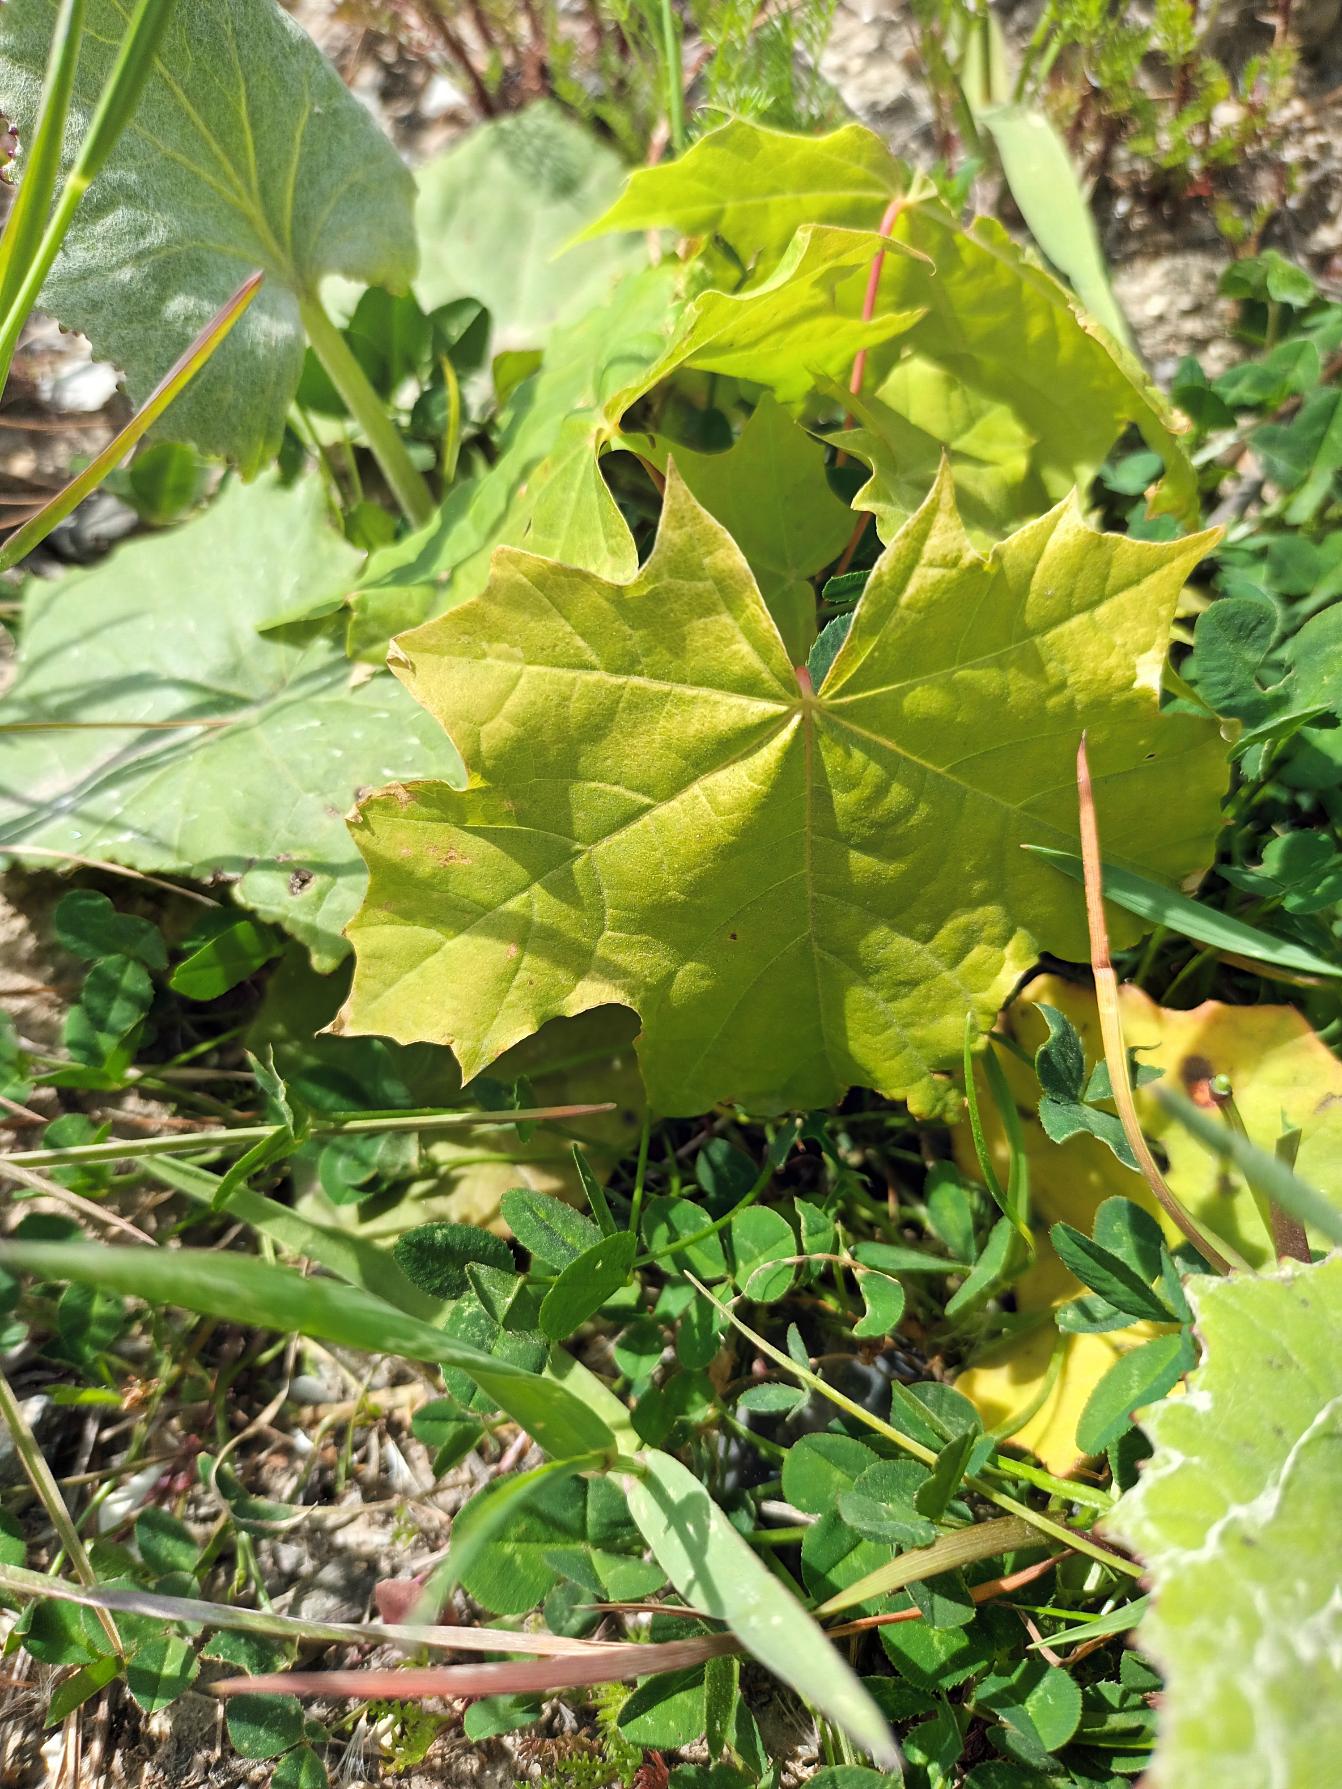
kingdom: Plantae
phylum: Tracheophyta
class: Magnoliopsida
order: Sapindales
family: Sapindaceae
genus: Acer
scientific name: Acer platanoides
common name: Spids-løn
